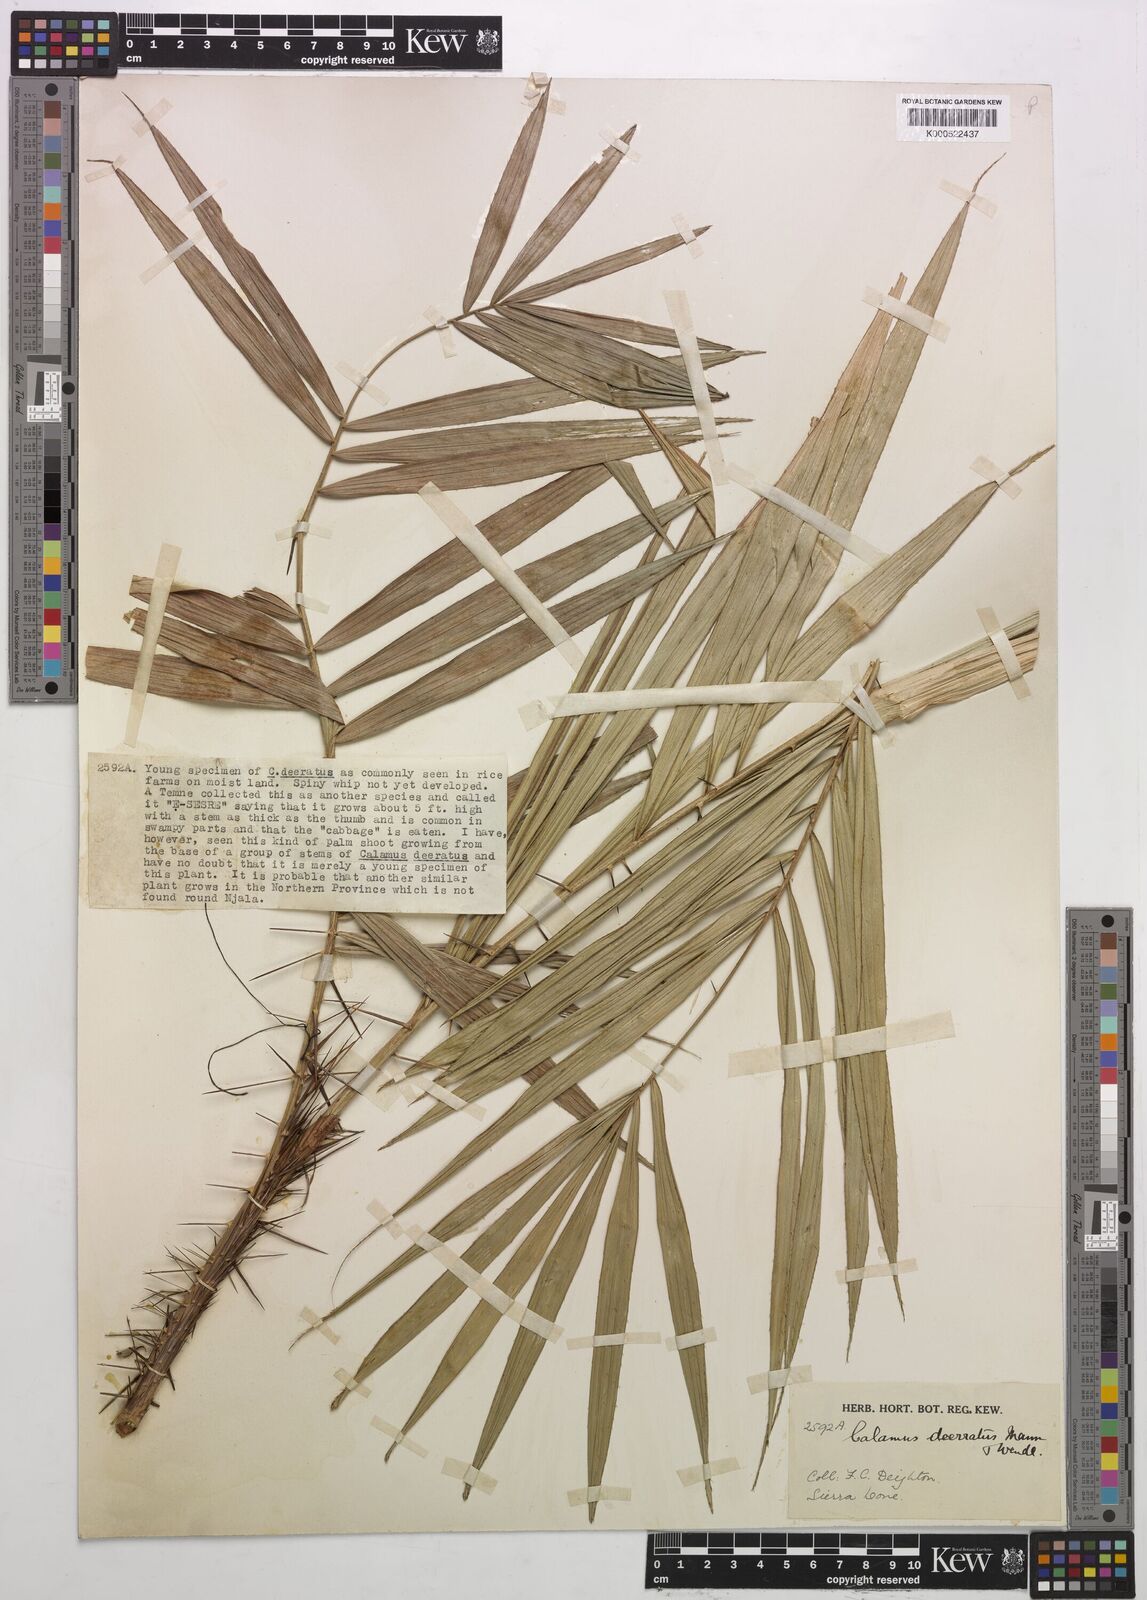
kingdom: Plantae
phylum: Tracheophyta
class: Liliopsida
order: Arecales
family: Arecaceae
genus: Calamus
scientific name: Calamus deerratus
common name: Rattan
